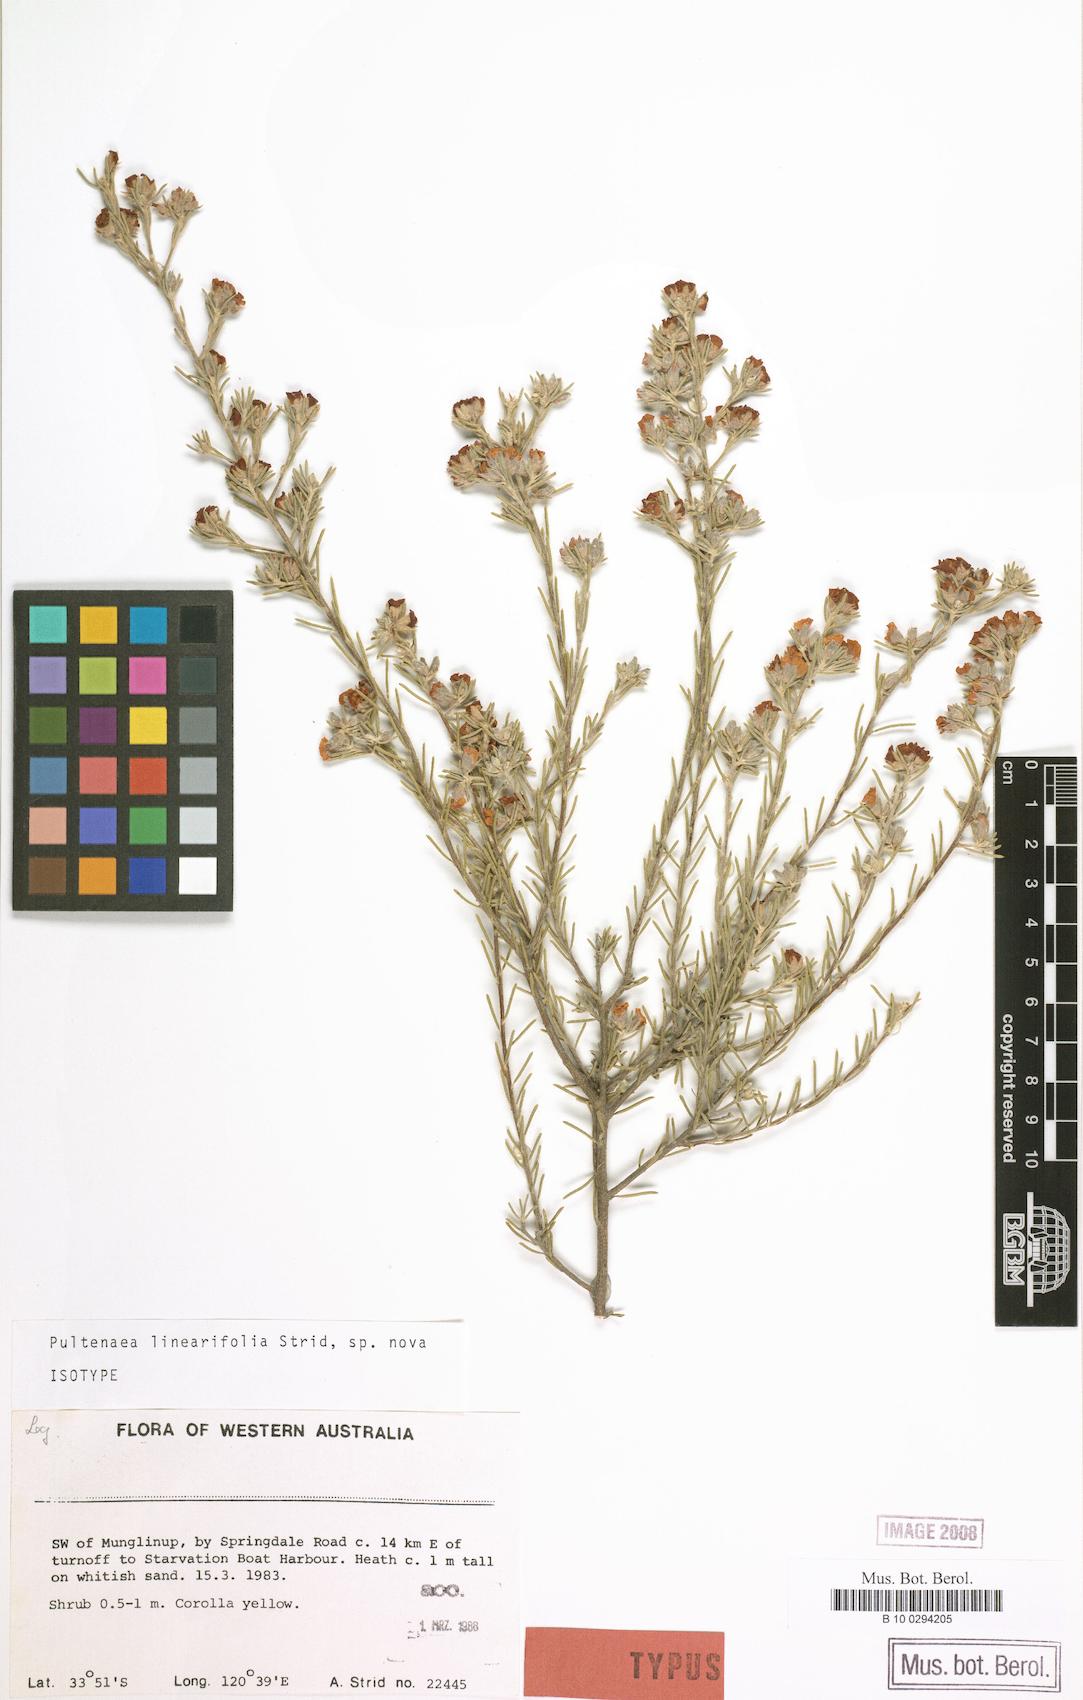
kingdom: Plantae
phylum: Tracheophyta
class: Magnoliopsida
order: Fabales
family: Fabaceae
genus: Pultenaea
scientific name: Pultenaea adunca
